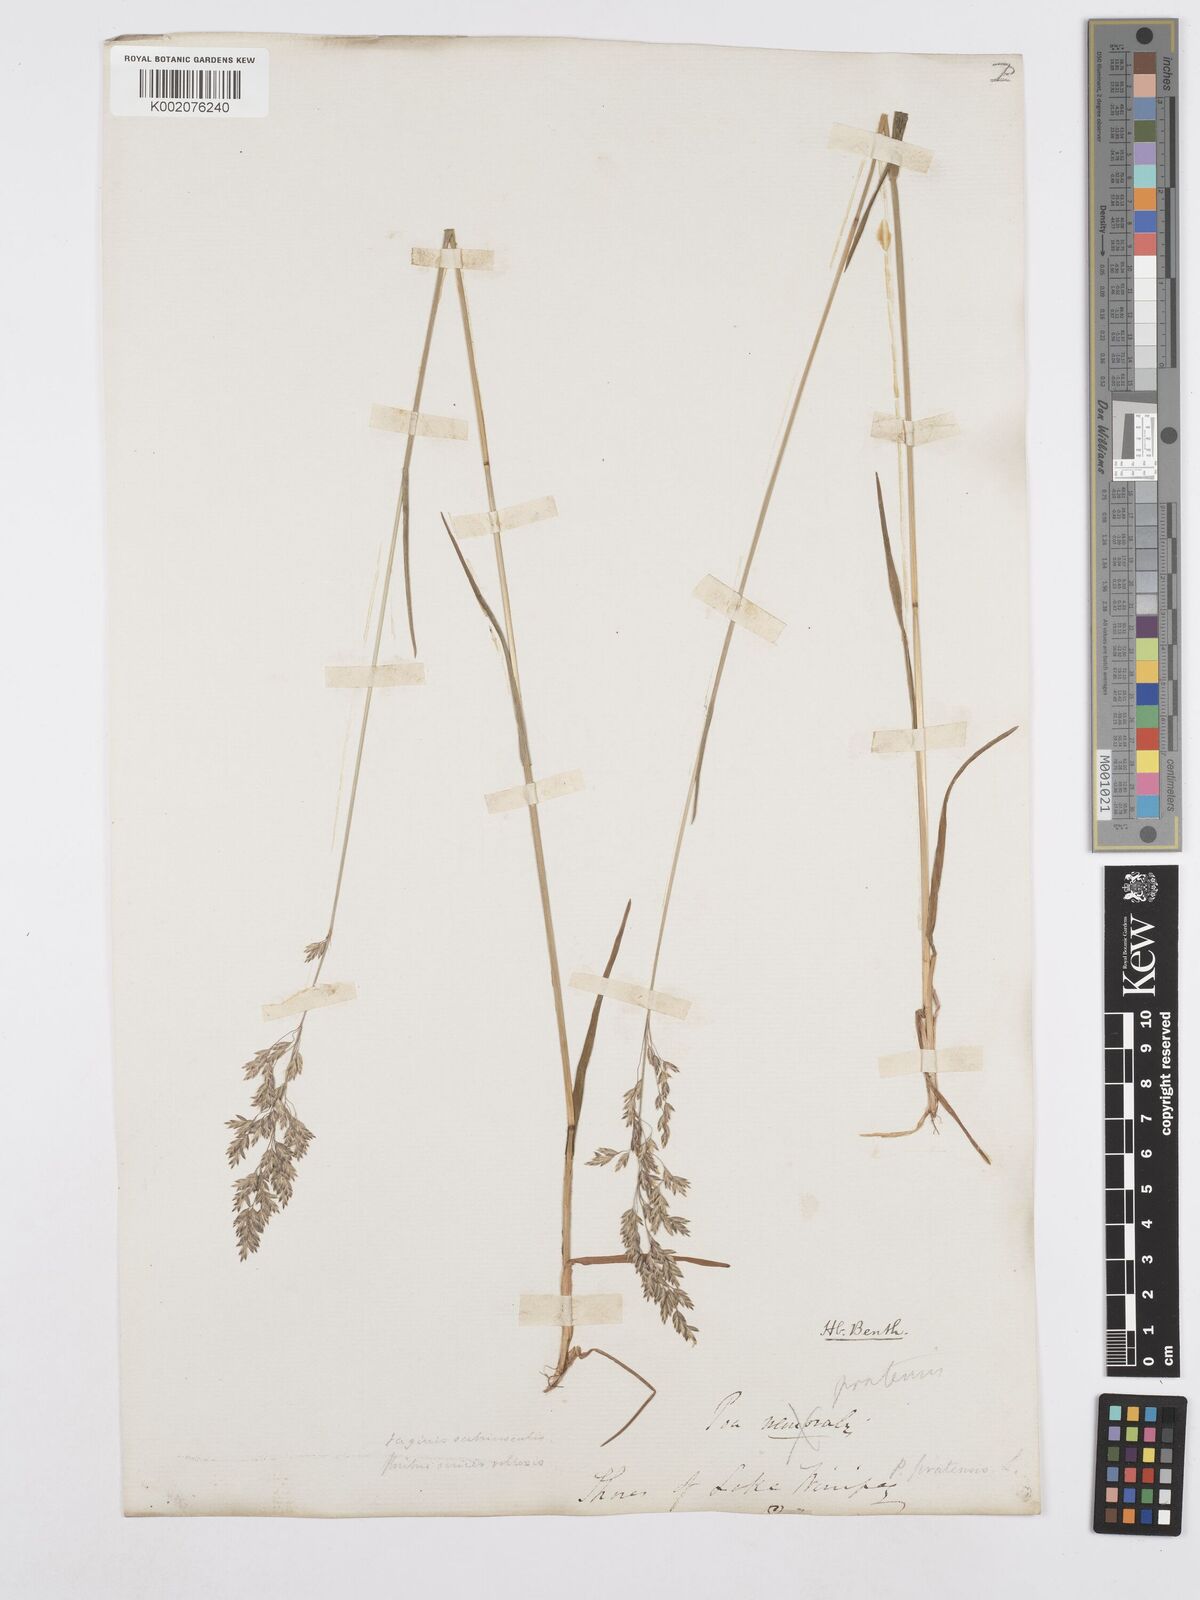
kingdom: Plantae
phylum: Tracheophyta
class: Liliopsida
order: Poales
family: Poaceae
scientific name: Poaceae
